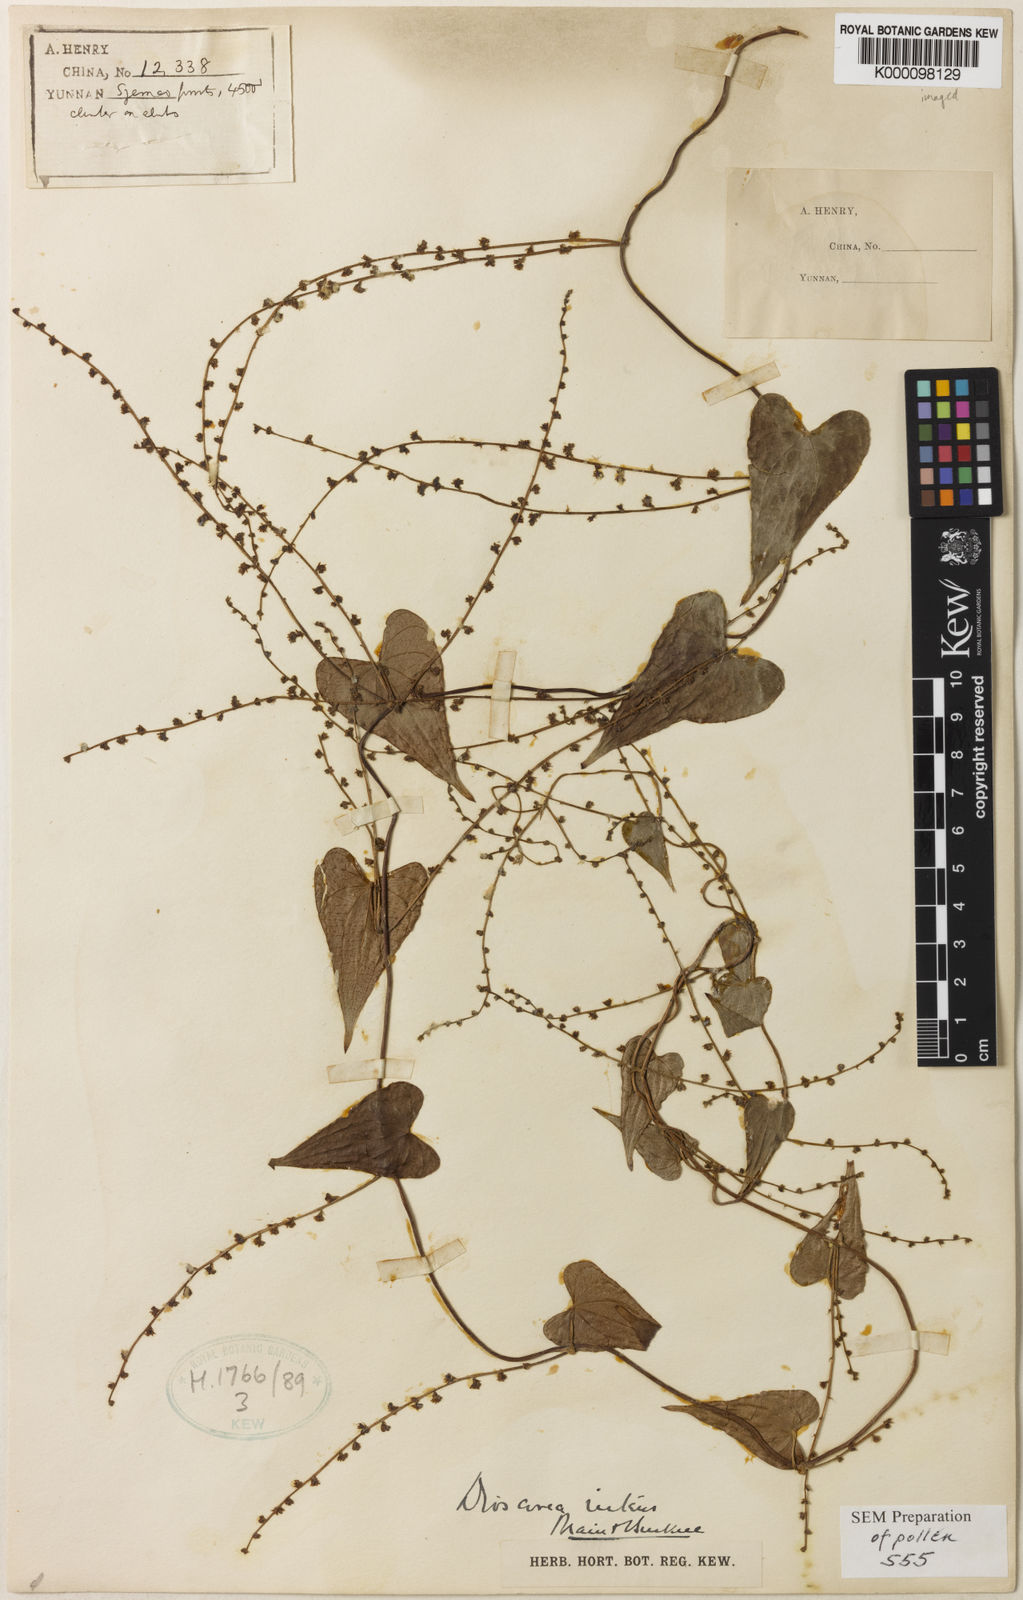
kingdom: Plantae
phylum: Tracheophyta
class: Liliopsida
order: Dioscoreales
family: Dioscoreaceae
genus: Dioscorea
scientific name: Dioscorea nitens
